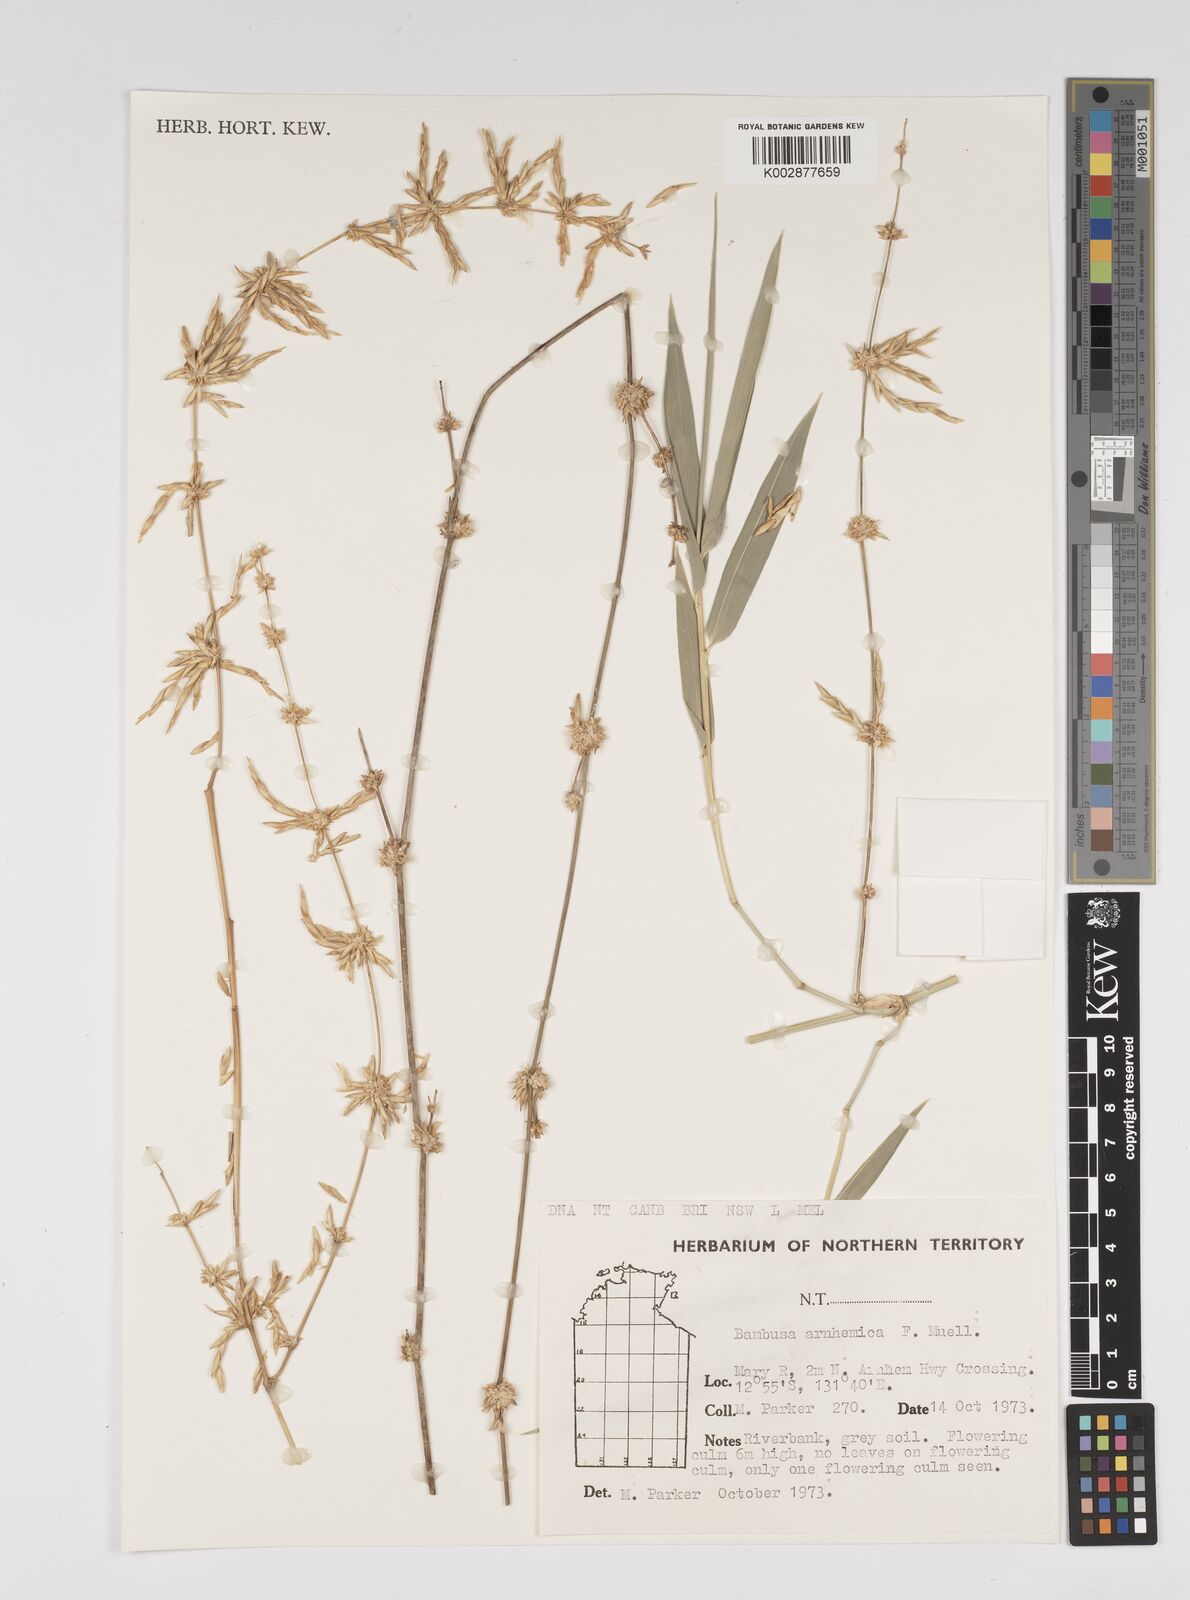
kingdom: Plantae
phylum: Tracheophyta
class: Liliopsida
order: Poales
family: Poaceae
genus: Bambusa
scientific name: Bambusa arnhemica
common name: Top-end bamboo
